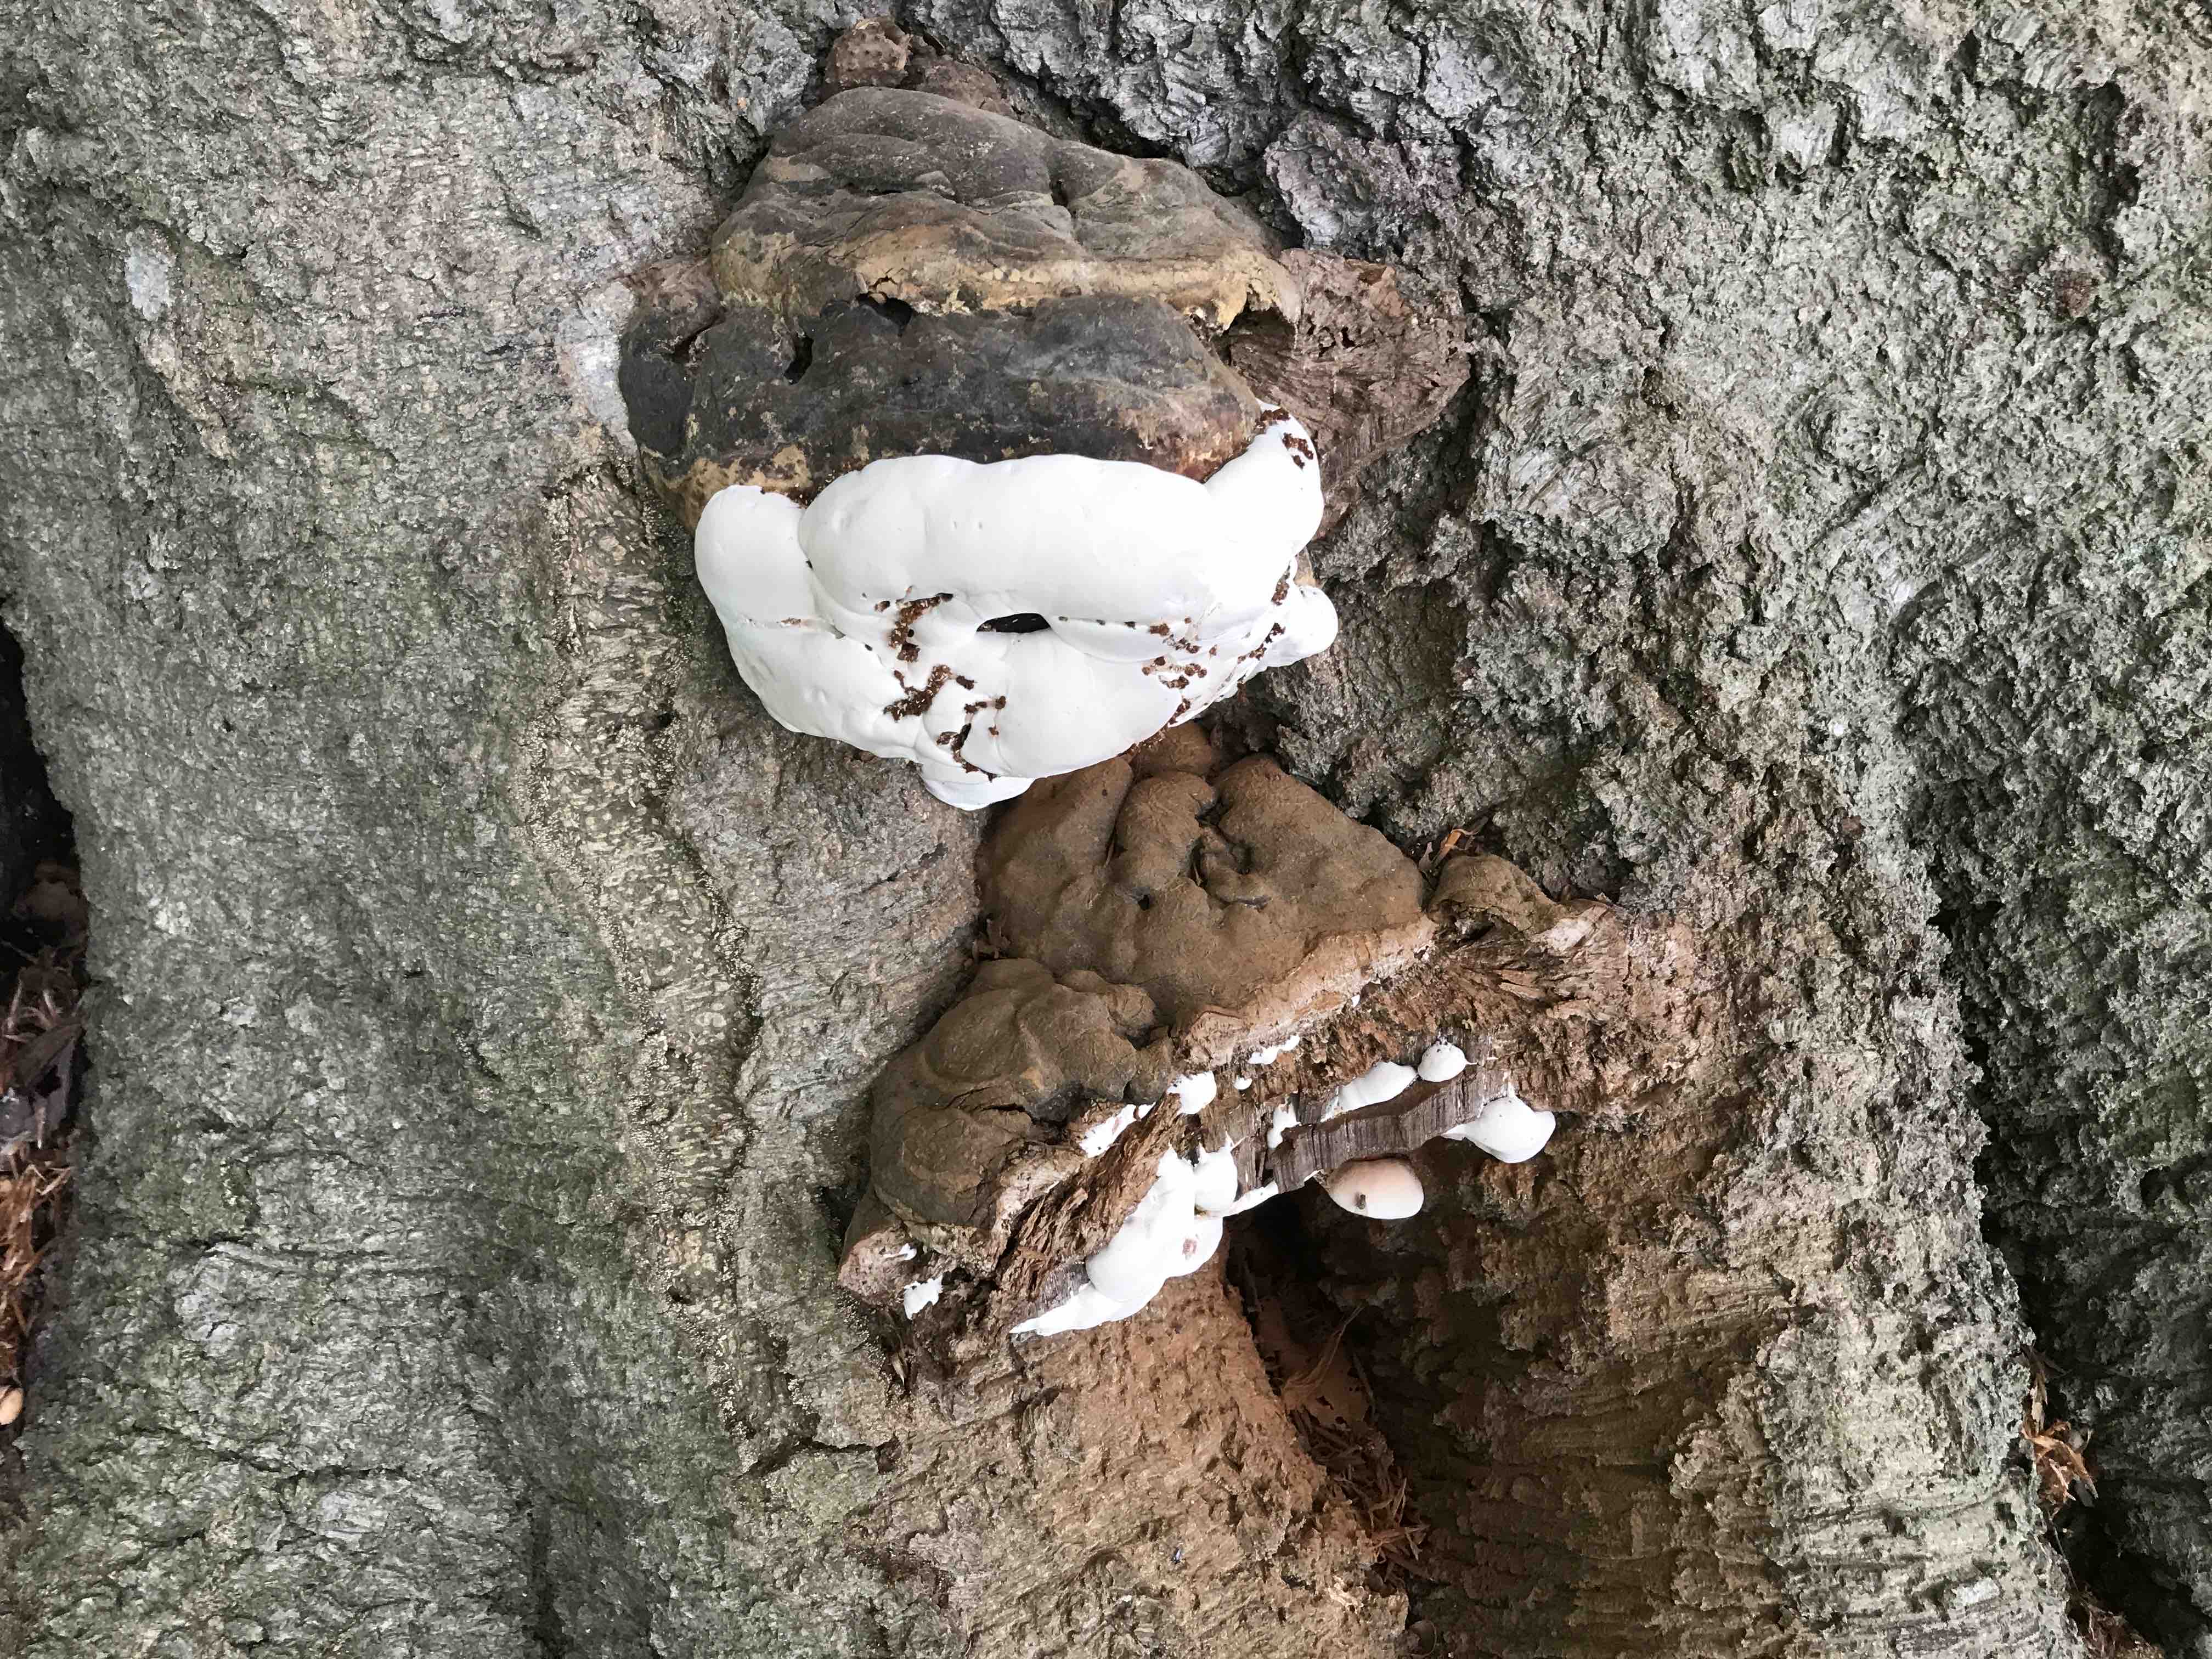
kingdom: Fungi
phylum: Basidiomycota
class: Agaricomycetes
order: Polyporales
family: Polyporaceae
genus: Ganoderma
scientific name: Ganoderma pfeifferi
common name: kobberrød lakporesvamp
